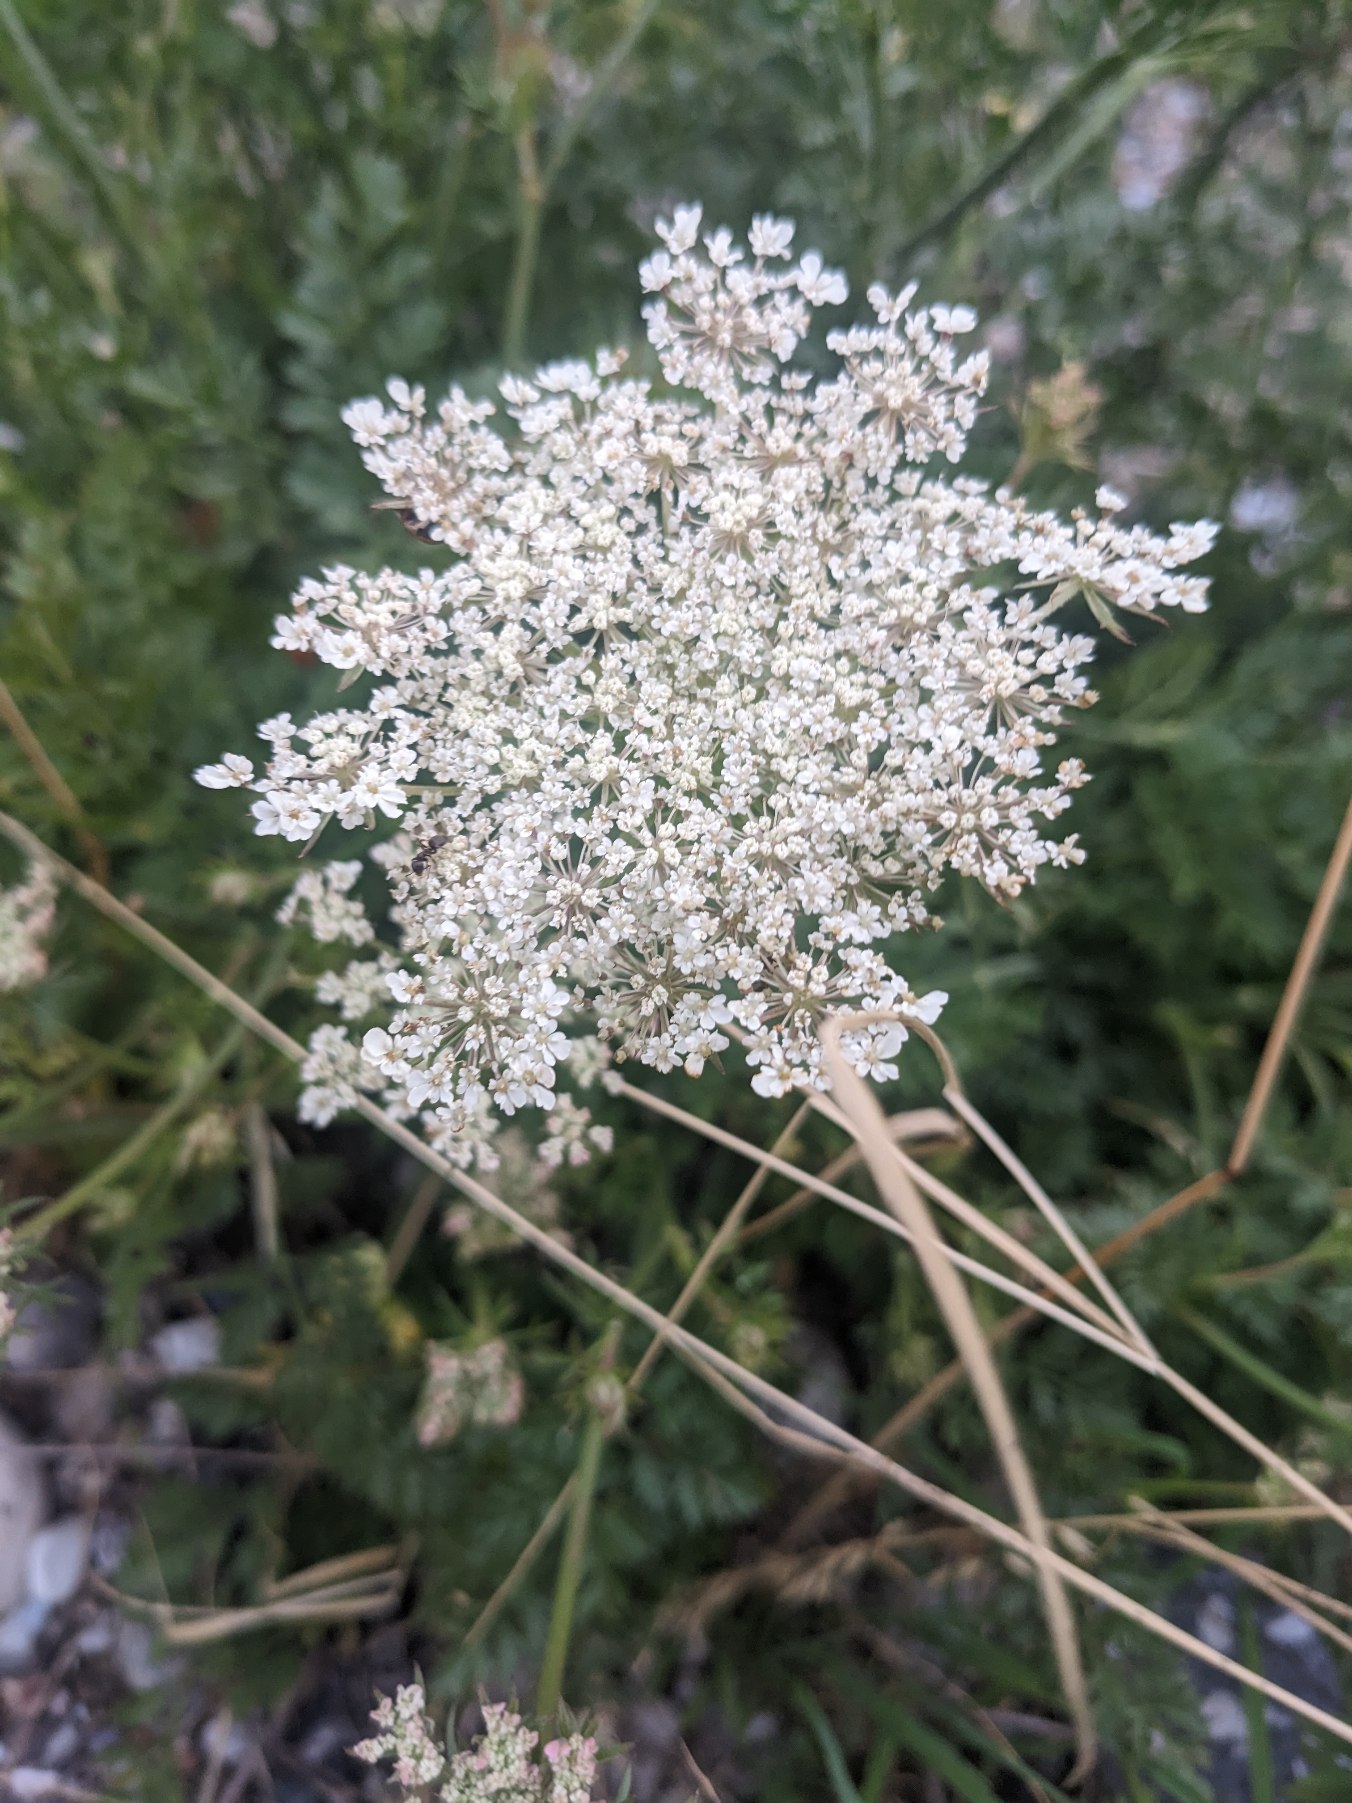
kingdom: Plantae
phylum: Tracheophyta
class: Magnoliopsida
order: Apiales
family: Apiaceae
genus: Daucus
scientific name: Daucus carota
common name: Gulerod
